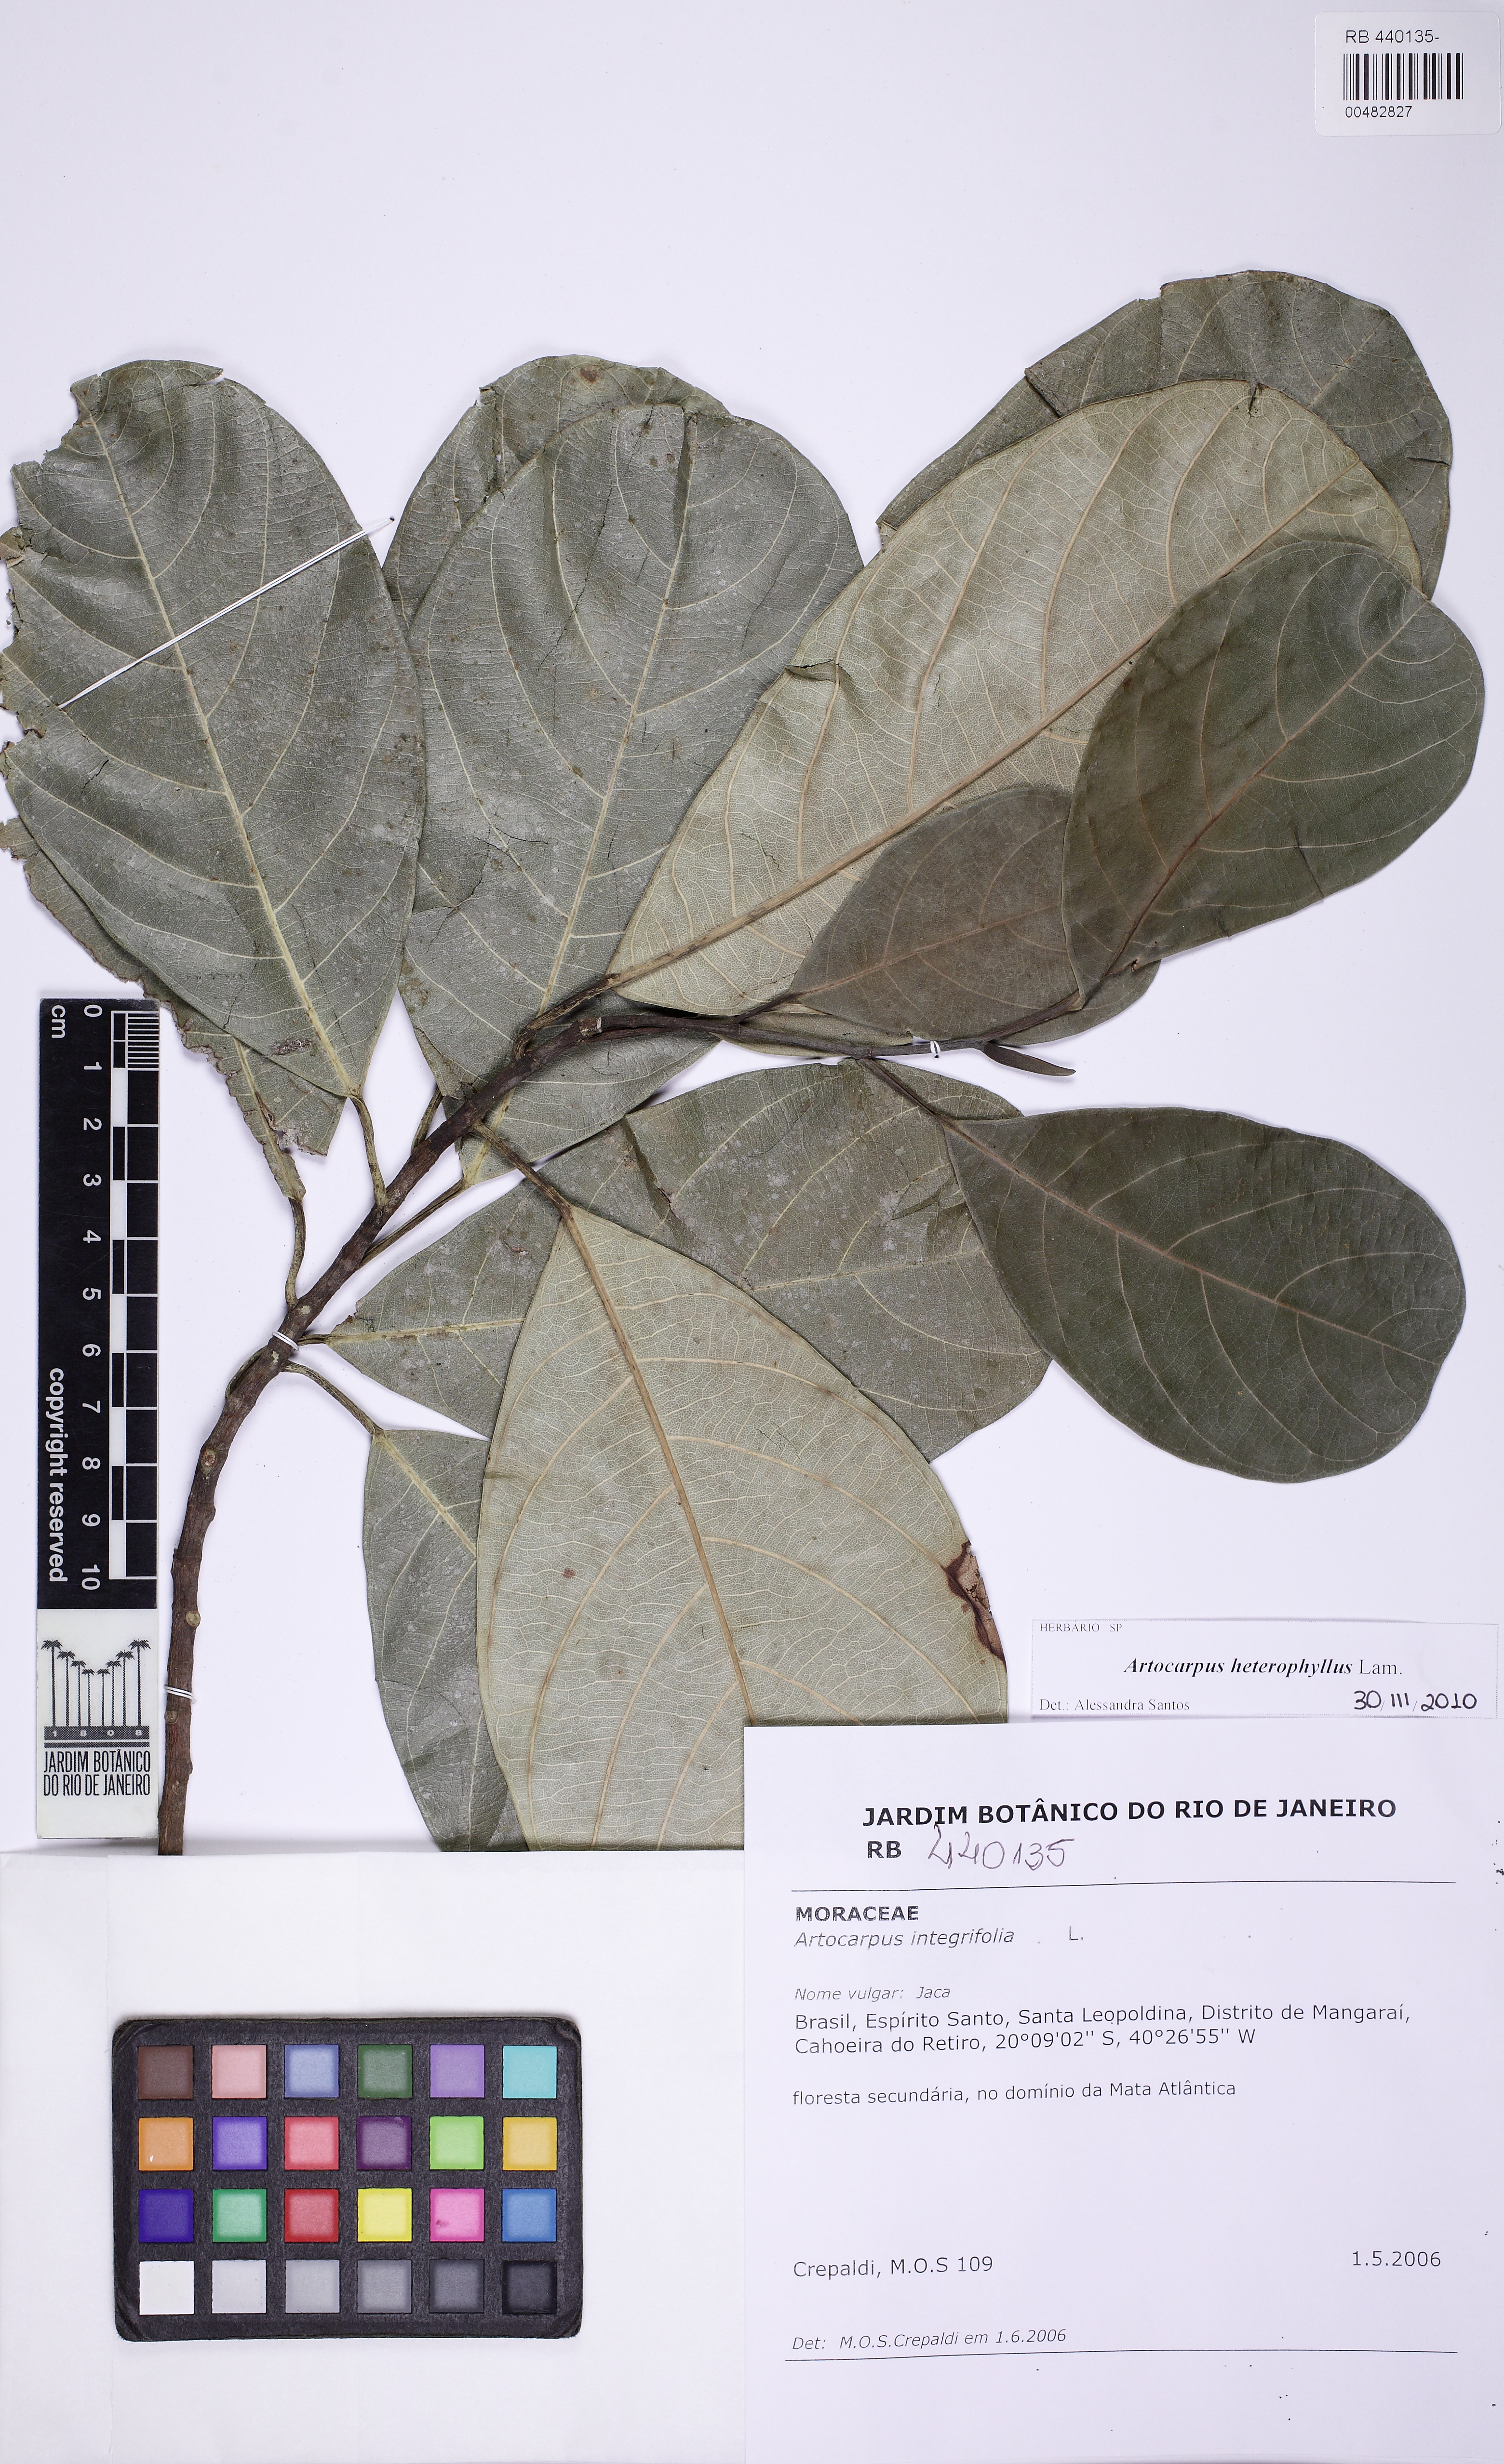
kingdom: Plantae
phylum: Tracheophyta
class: Magnoliopsida
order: Rosales
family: Moraceae
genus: Artocarpus
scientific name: Artocarpus heterophyllus
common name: Jackfruit
